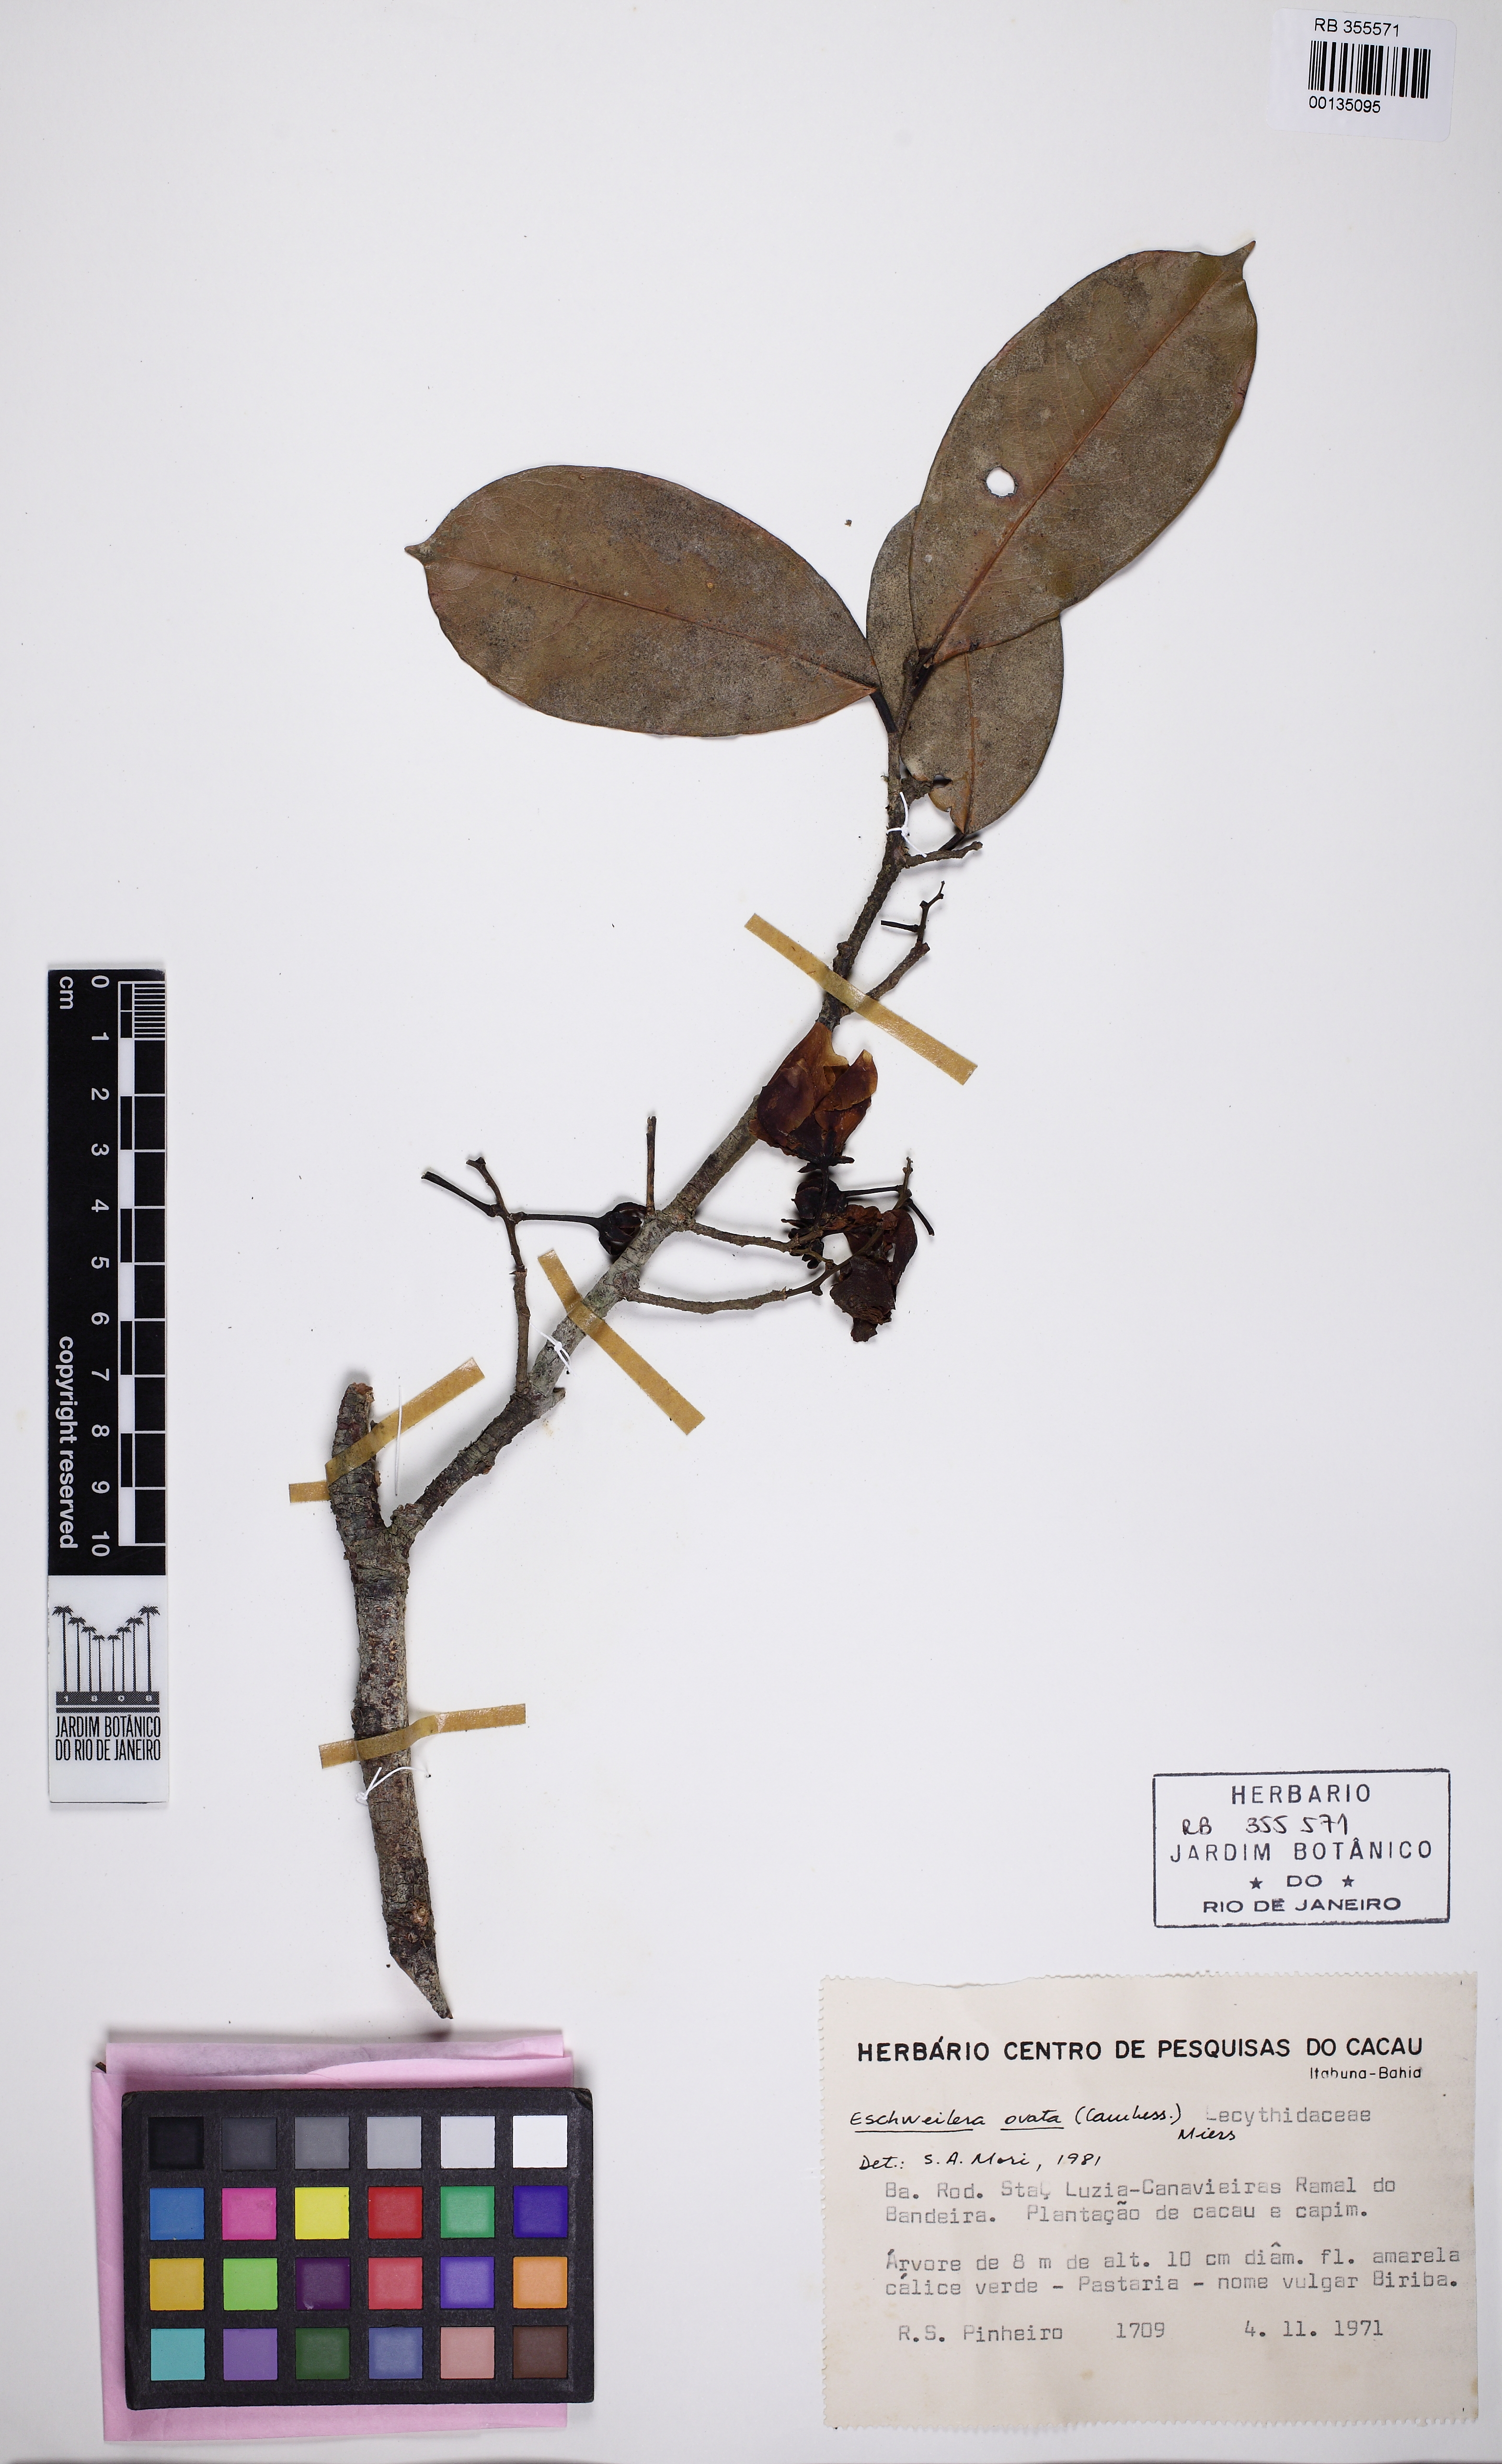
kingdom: Plantae
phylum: Tracheophyta
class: Magnoliopsida
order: Ericales
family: Lecythidaceae
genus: Eschweilera
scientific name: Eschweilera ovata
